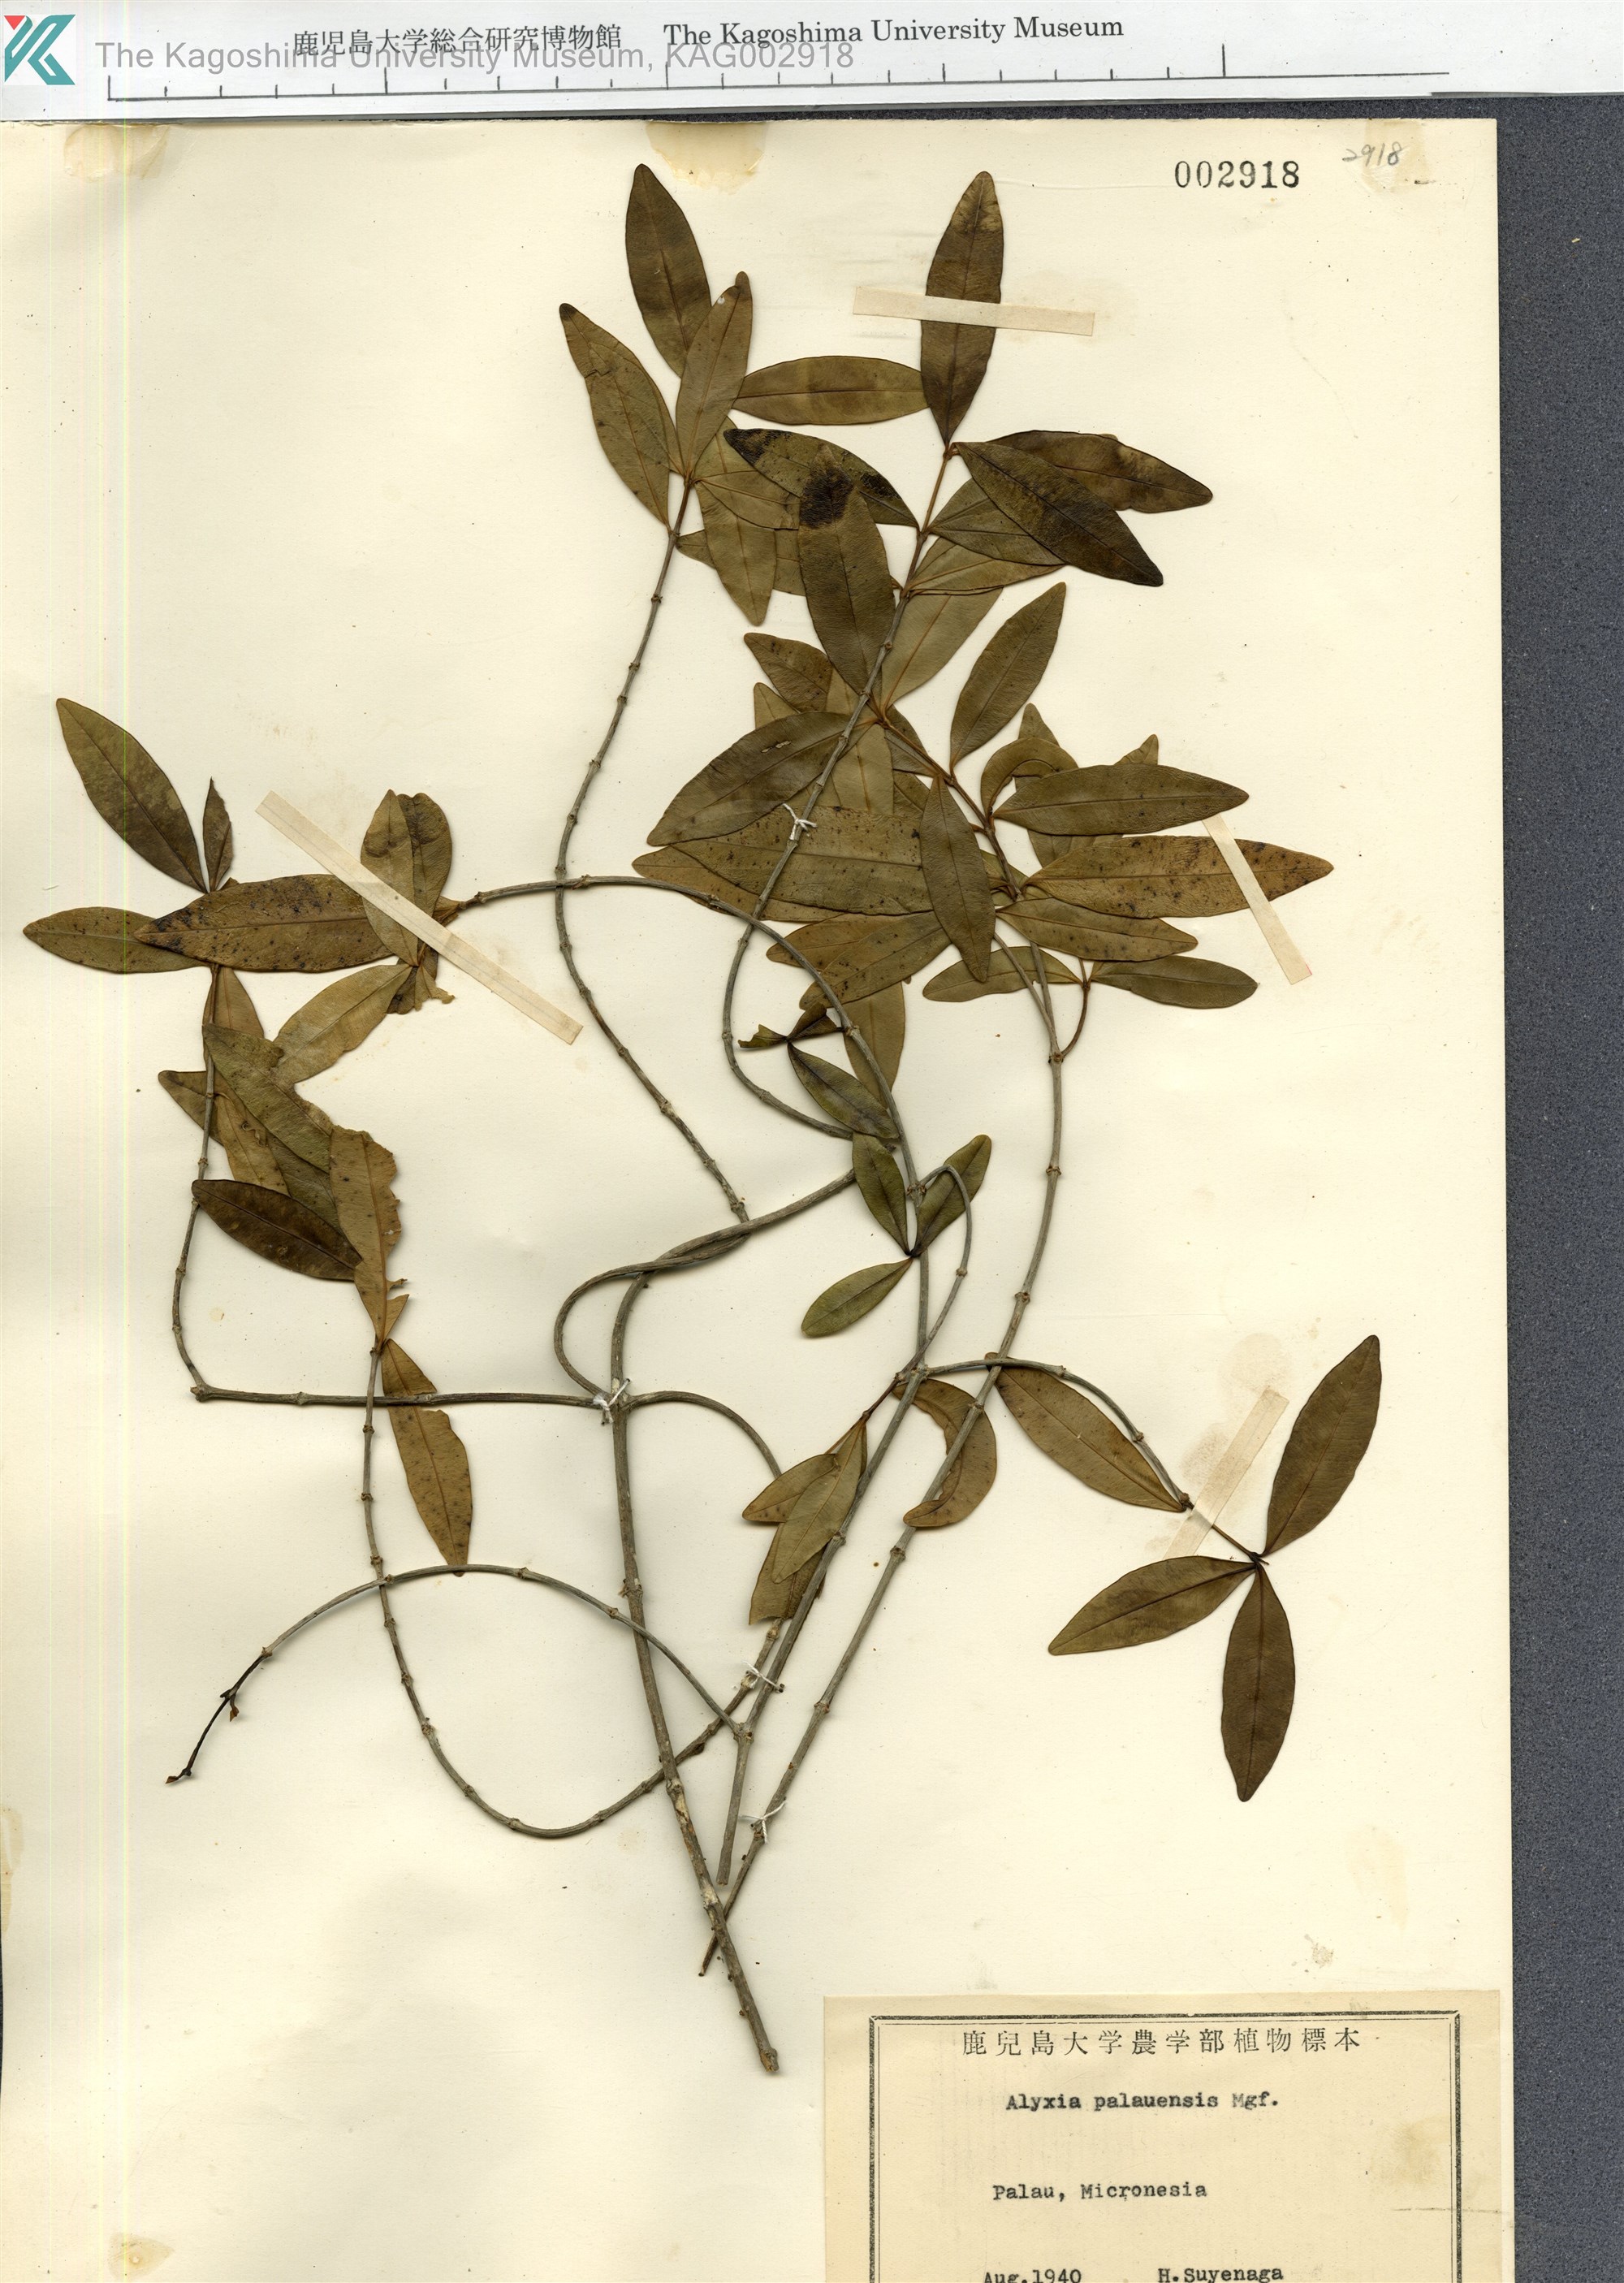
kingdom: Plantae
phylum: Tracheophyta
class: Magnoliopsida
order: Gentianales
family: Apocynaceae
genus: Alyxia
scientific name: Alyxia stellata
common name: Maile
